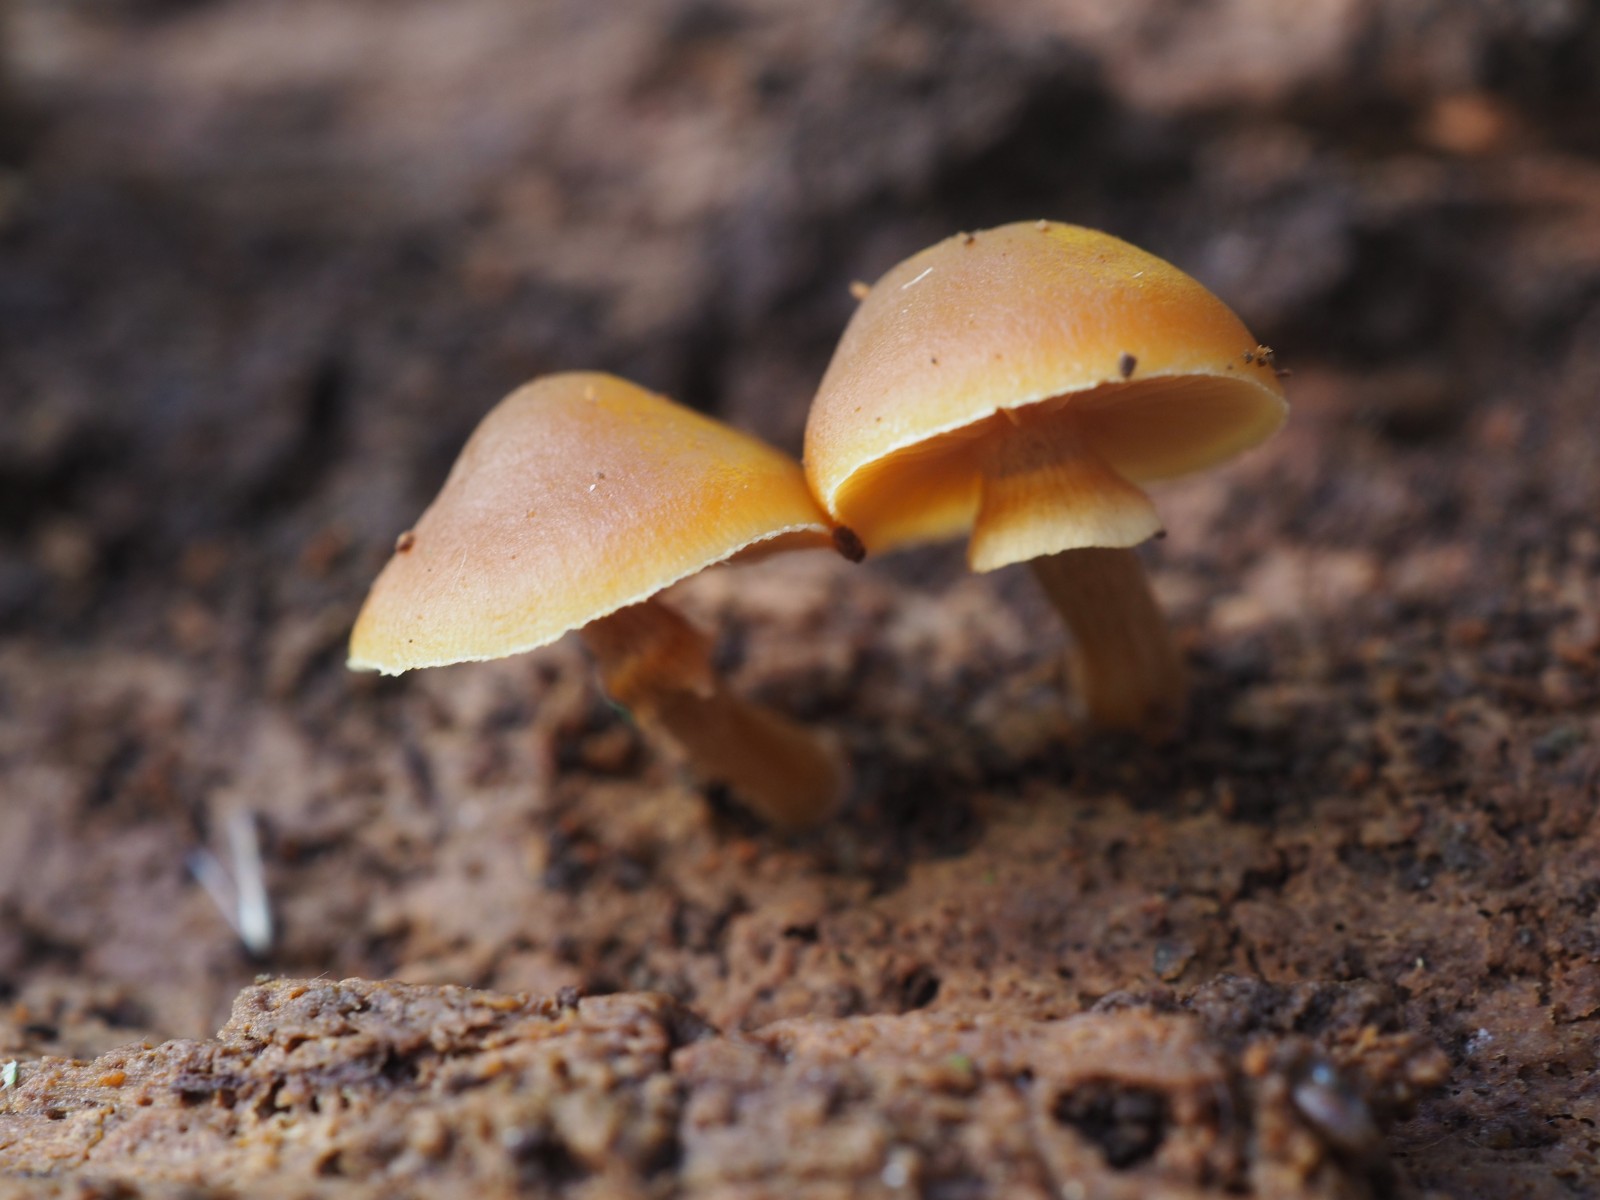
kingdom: Fungi
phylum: Basidiomycota
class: Agaricomycetes
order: Agaricales
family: Hymenogastraceae
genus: Galerina
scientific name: Galerina marginata
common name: randbæltet hjelmhat
